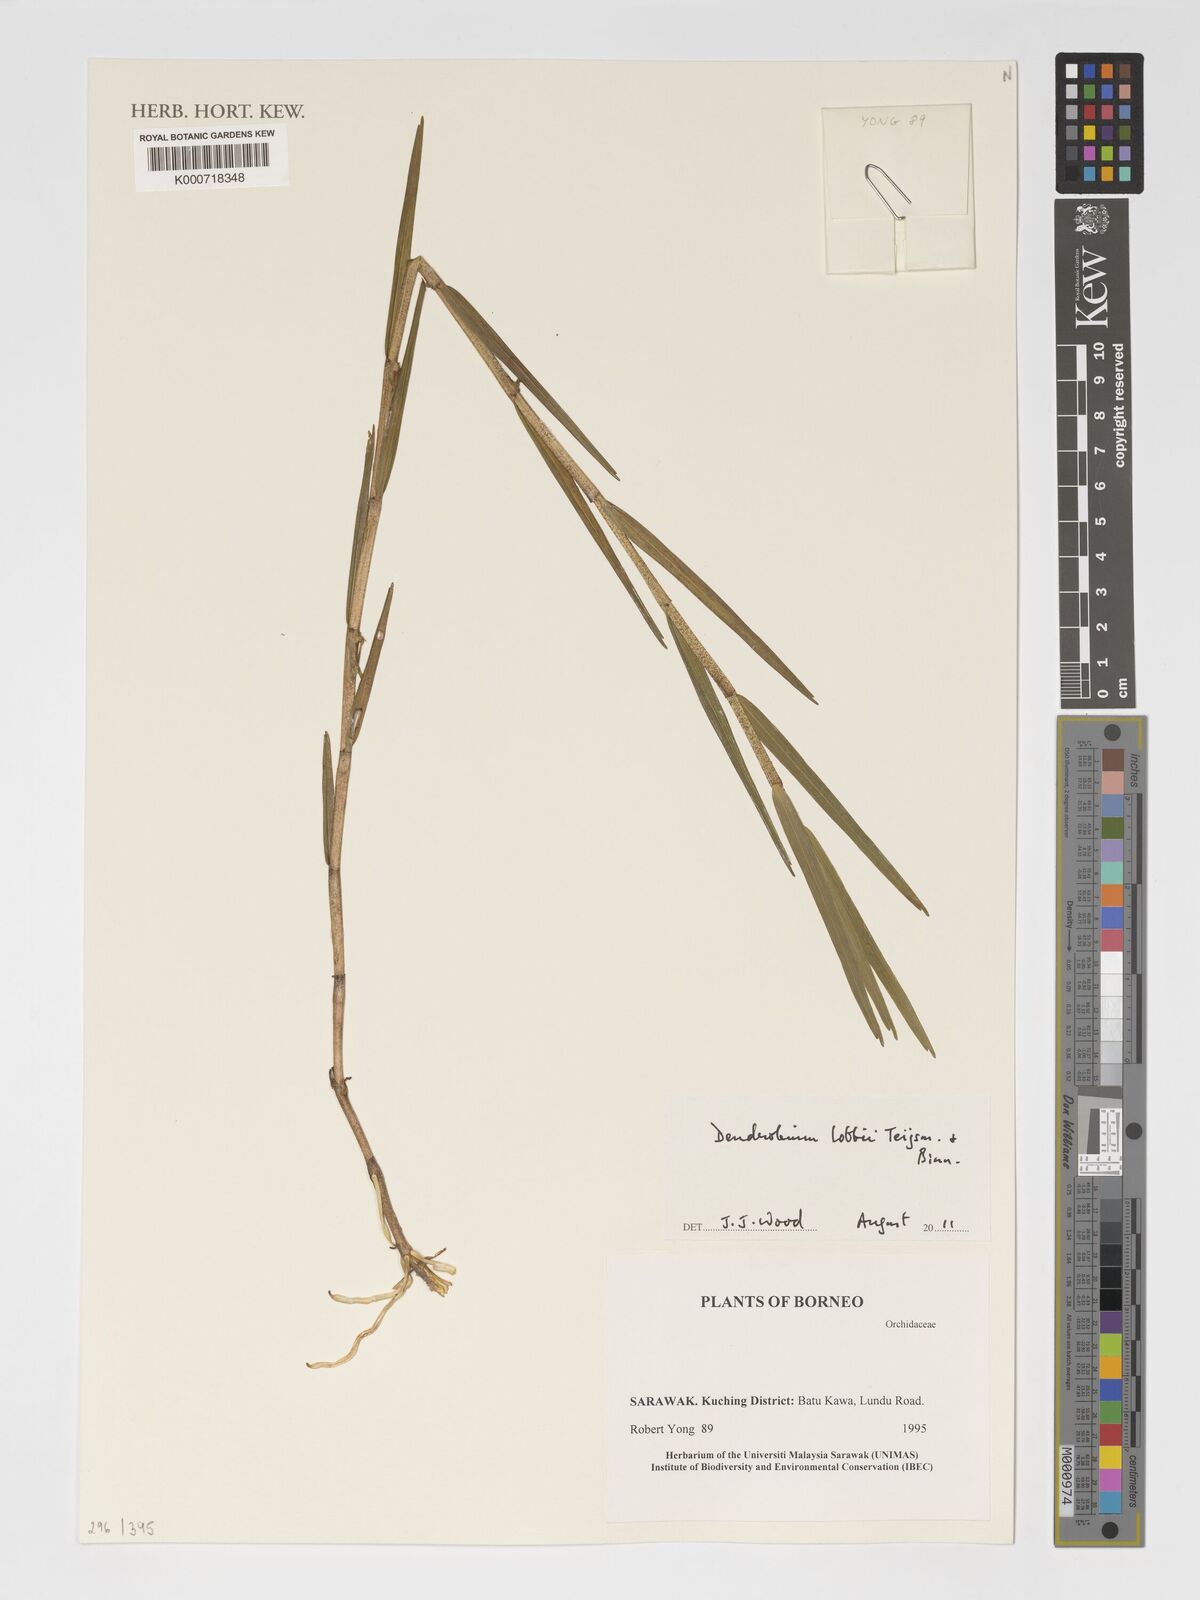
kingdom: Plantae
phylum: Tracheophyta
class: Liliopsida
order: Asparagales
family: Orchidaceae
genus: Dendrobium
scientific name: Dendrobium lobbii
